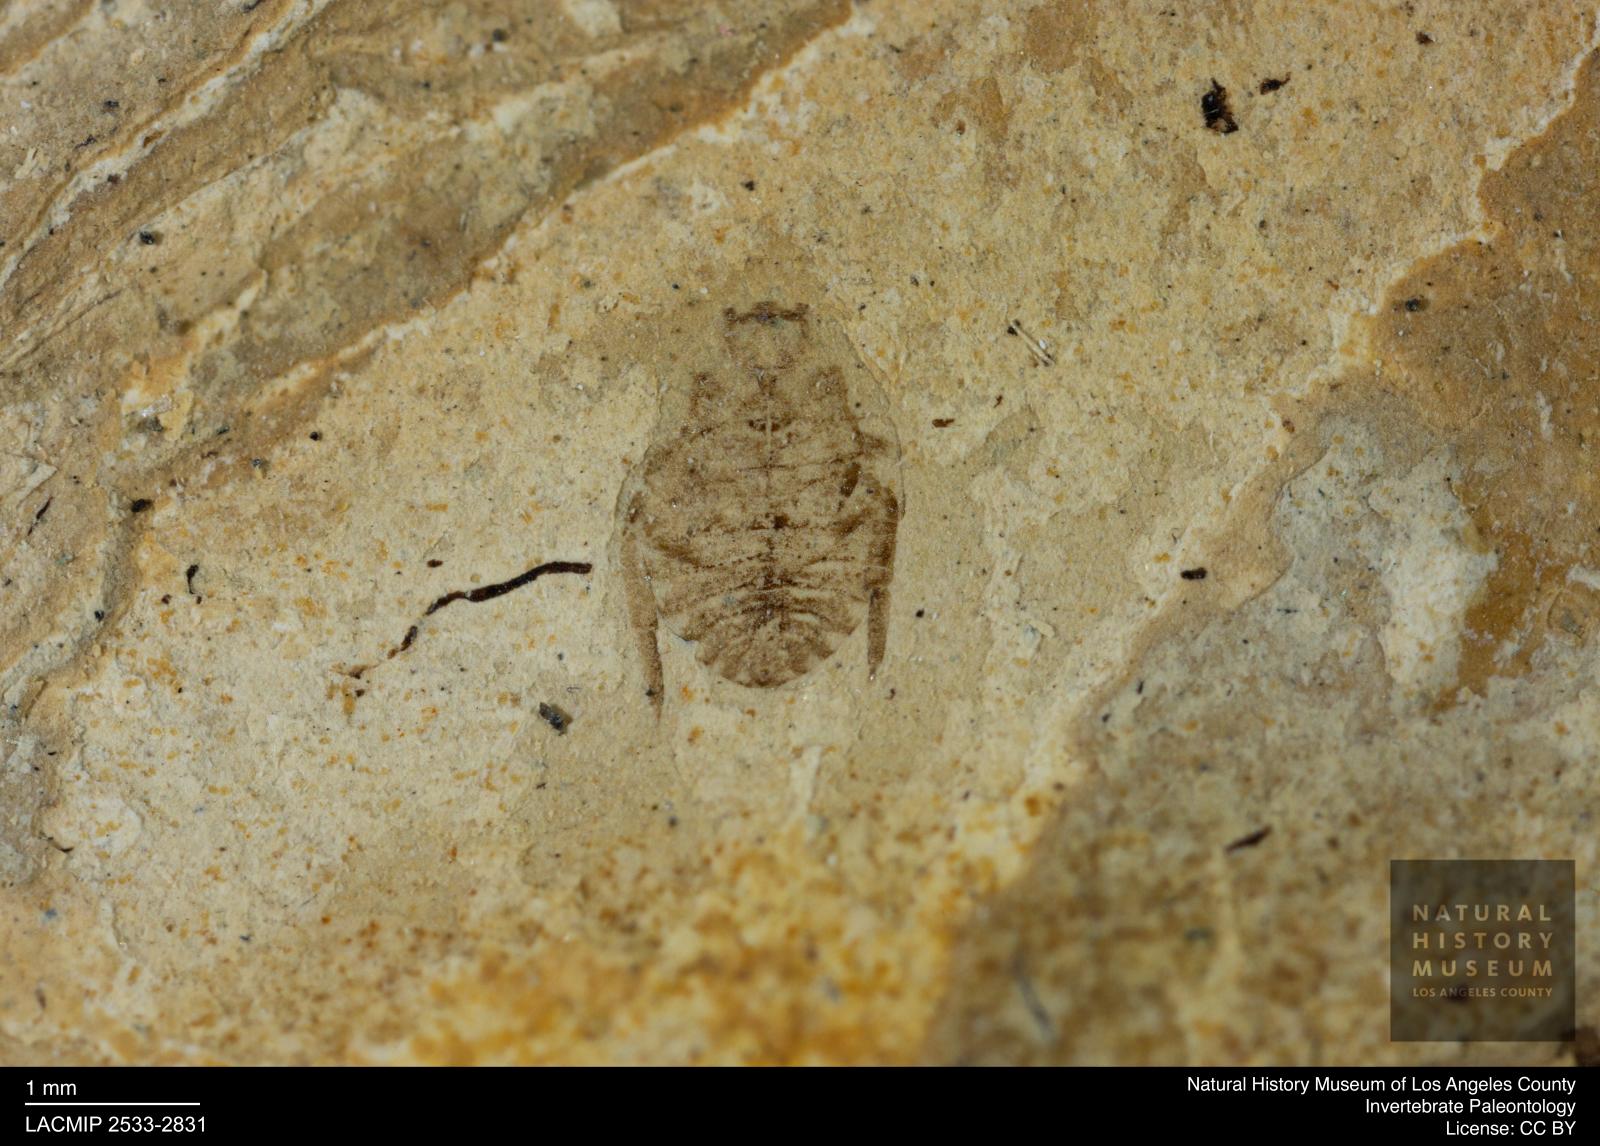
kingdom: Animalia
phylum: Arthropoda
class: Insecta
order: Hemiptera
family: Naucoridae
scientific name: Naucoridae
